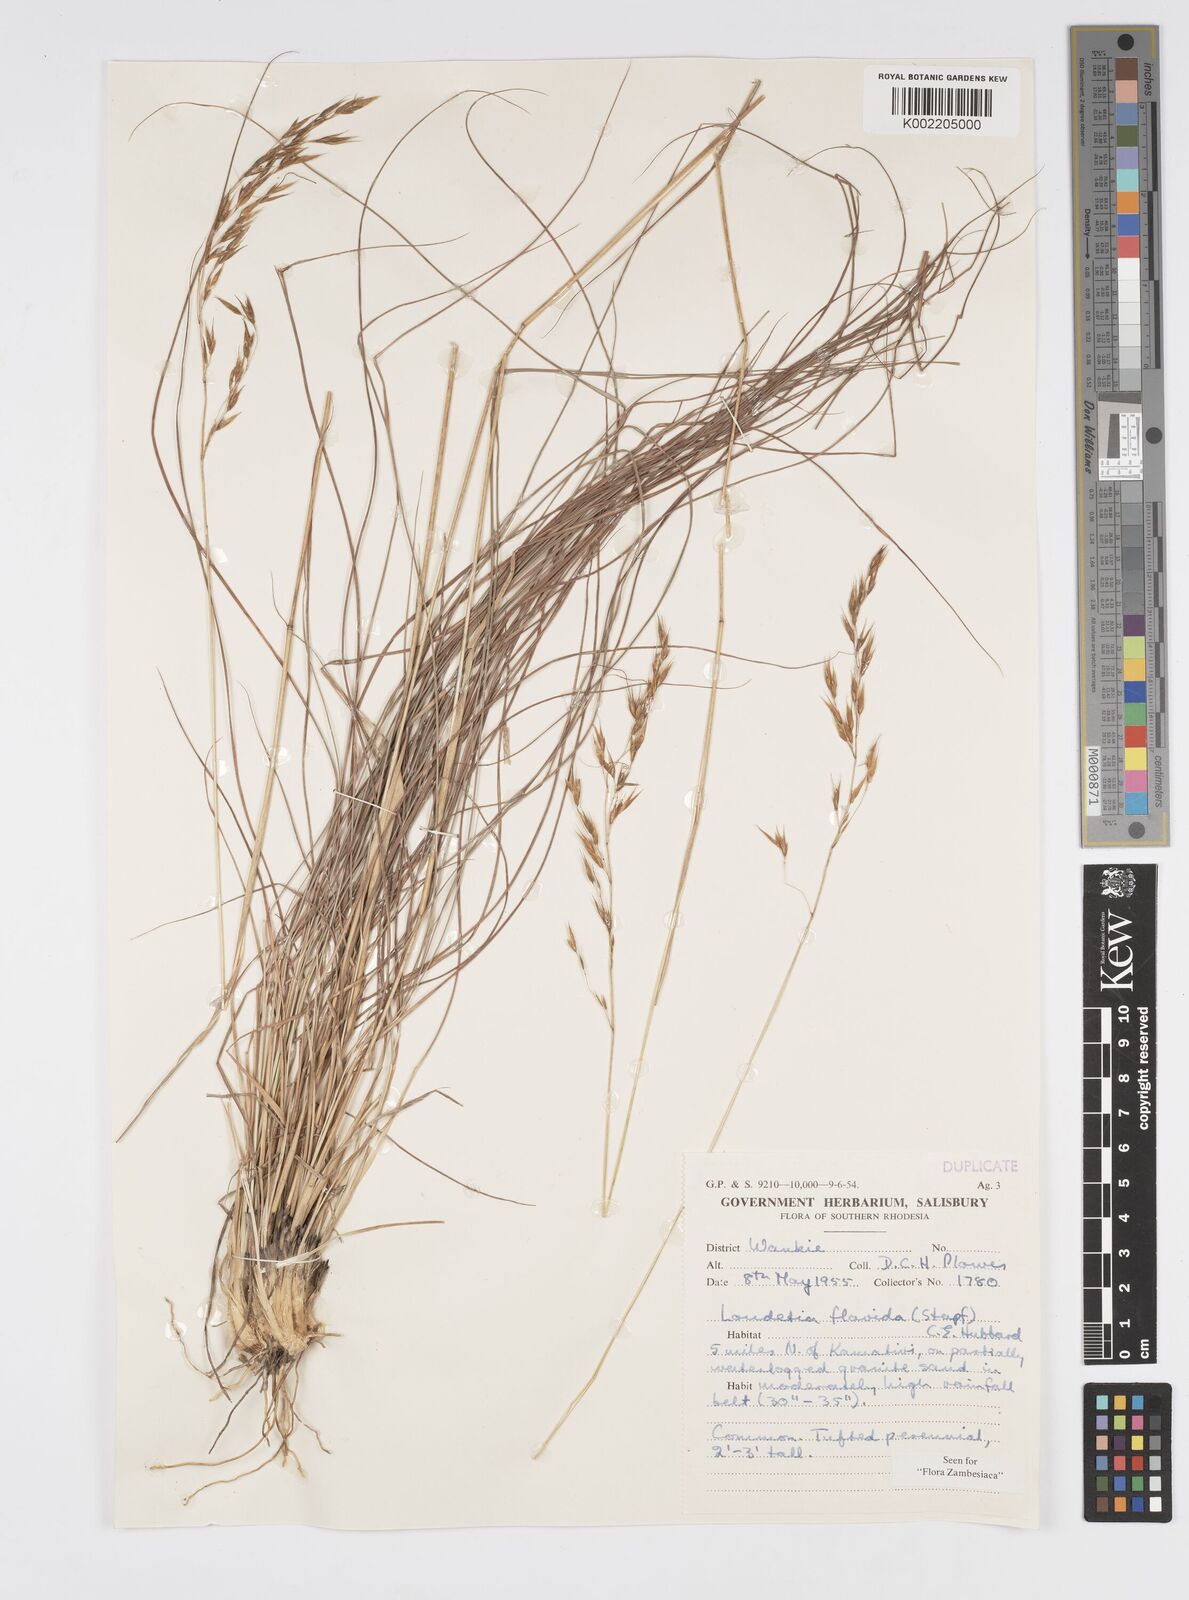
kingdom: Plantae
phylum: Tracheophyta
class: Liliopsida
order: Poales
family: Poaceae
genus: Loudetia
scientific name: Loudetia flavida
